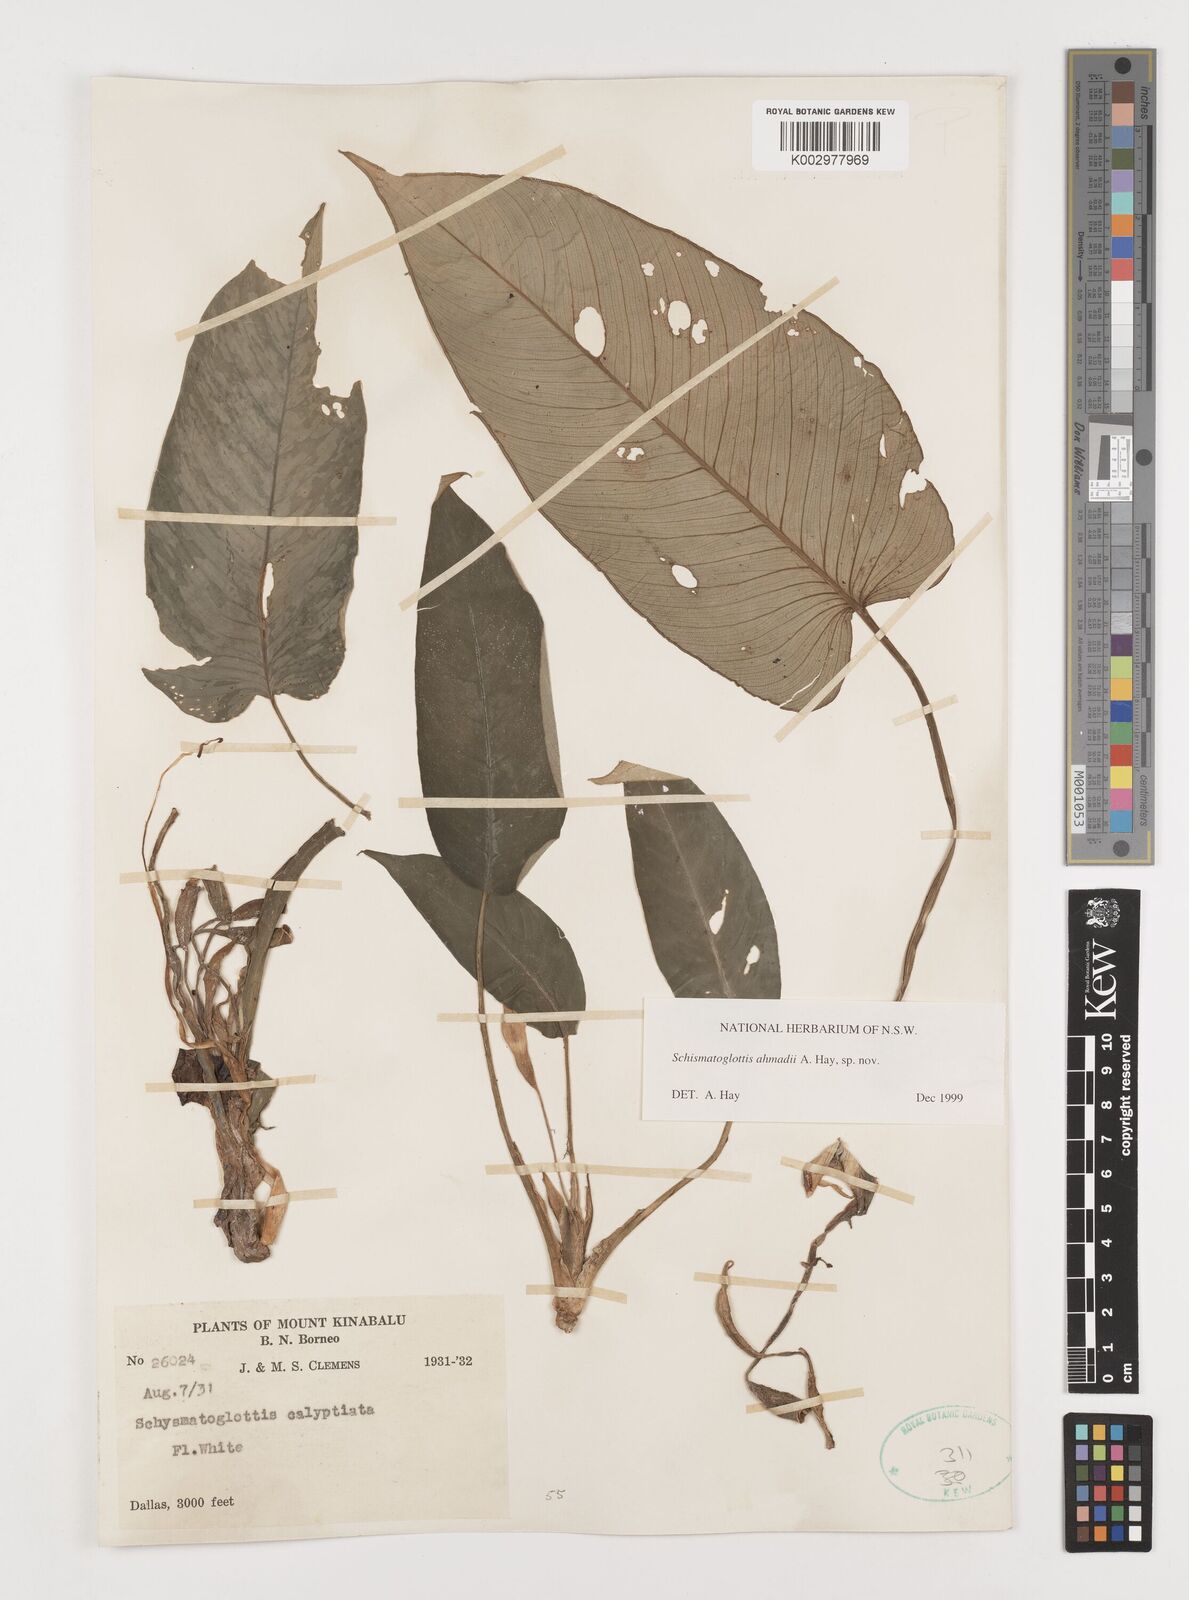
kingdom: Plantae
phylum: Tracheophyta
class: Liliopsida
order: Alismatales
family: Araceae
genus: Schismatoglottis
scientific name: Schismatoglottis ahmadii
